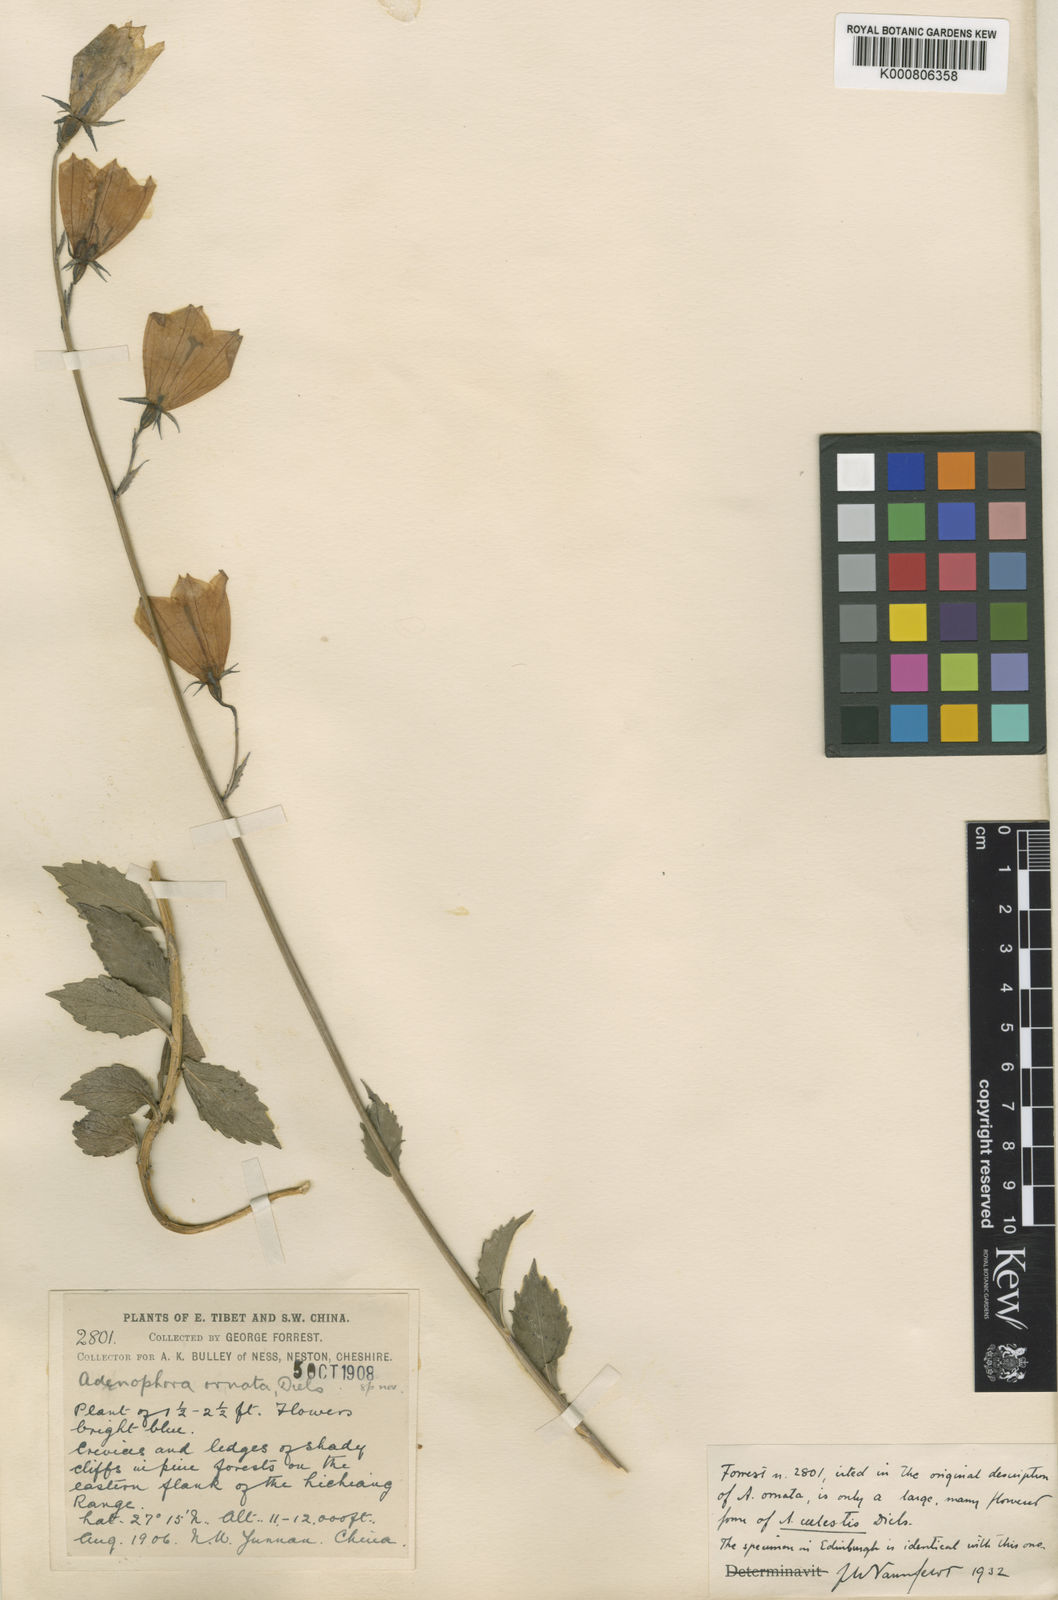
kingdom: Plantae
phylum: Tracheophyta
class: Magnoliopsida
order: Asterales
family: Campanulaceae
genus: Adenophora
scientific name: Adenophora coelestis
